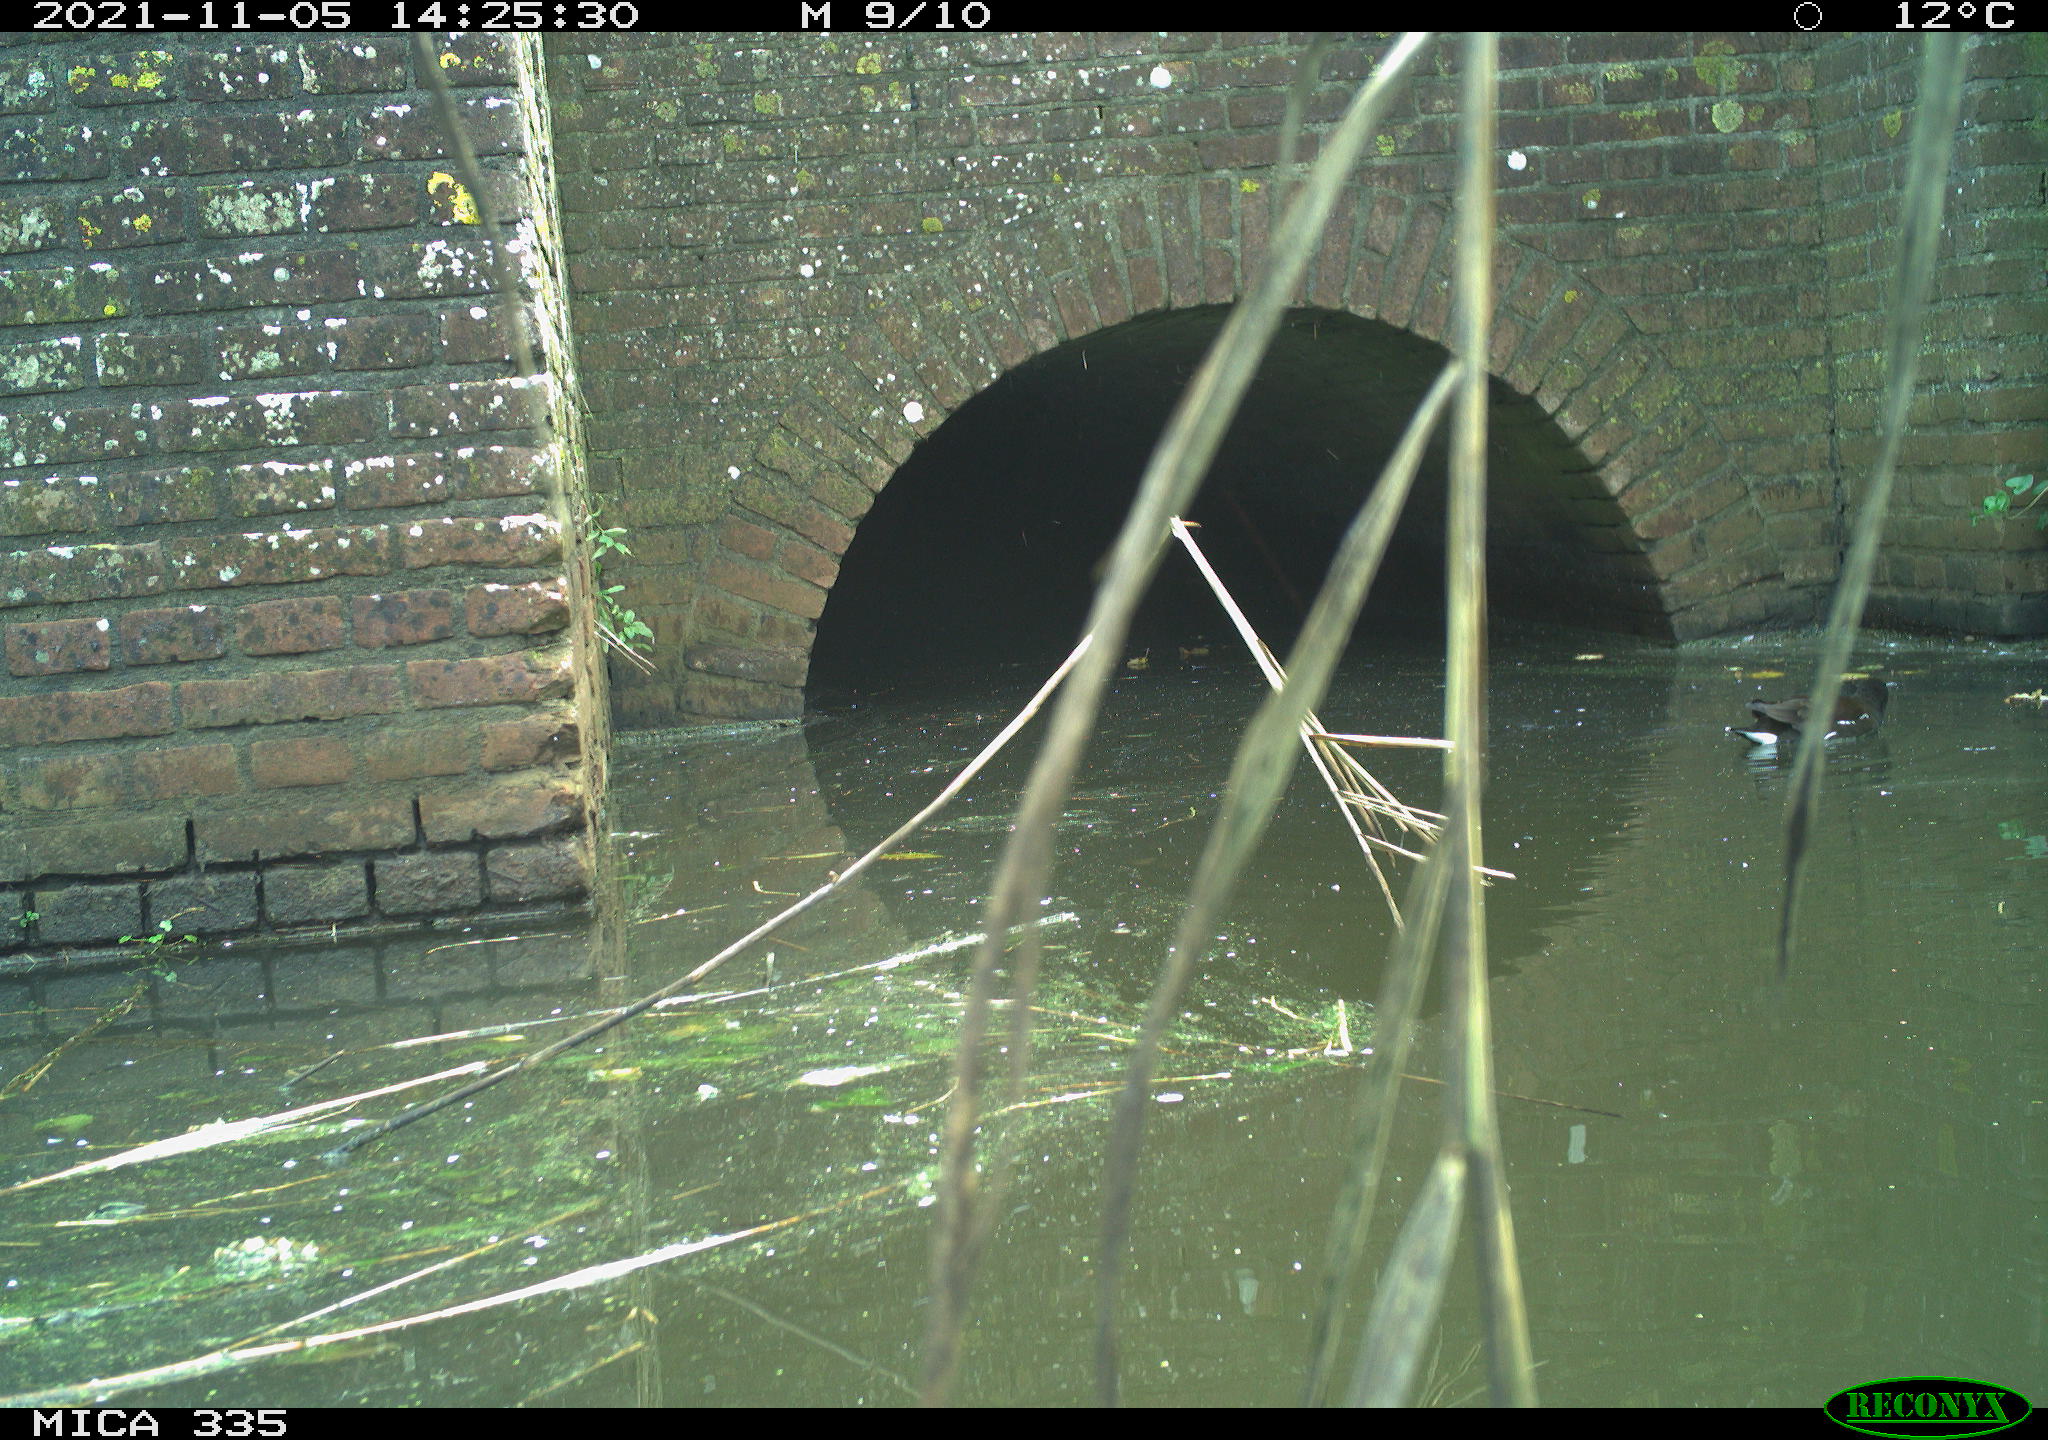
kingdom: Animalia
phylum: Chordata
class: Aves
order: Gruiformes
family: Rallidae
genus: Gallinula
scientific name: Gallinula chloropus
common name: Common moorhen
